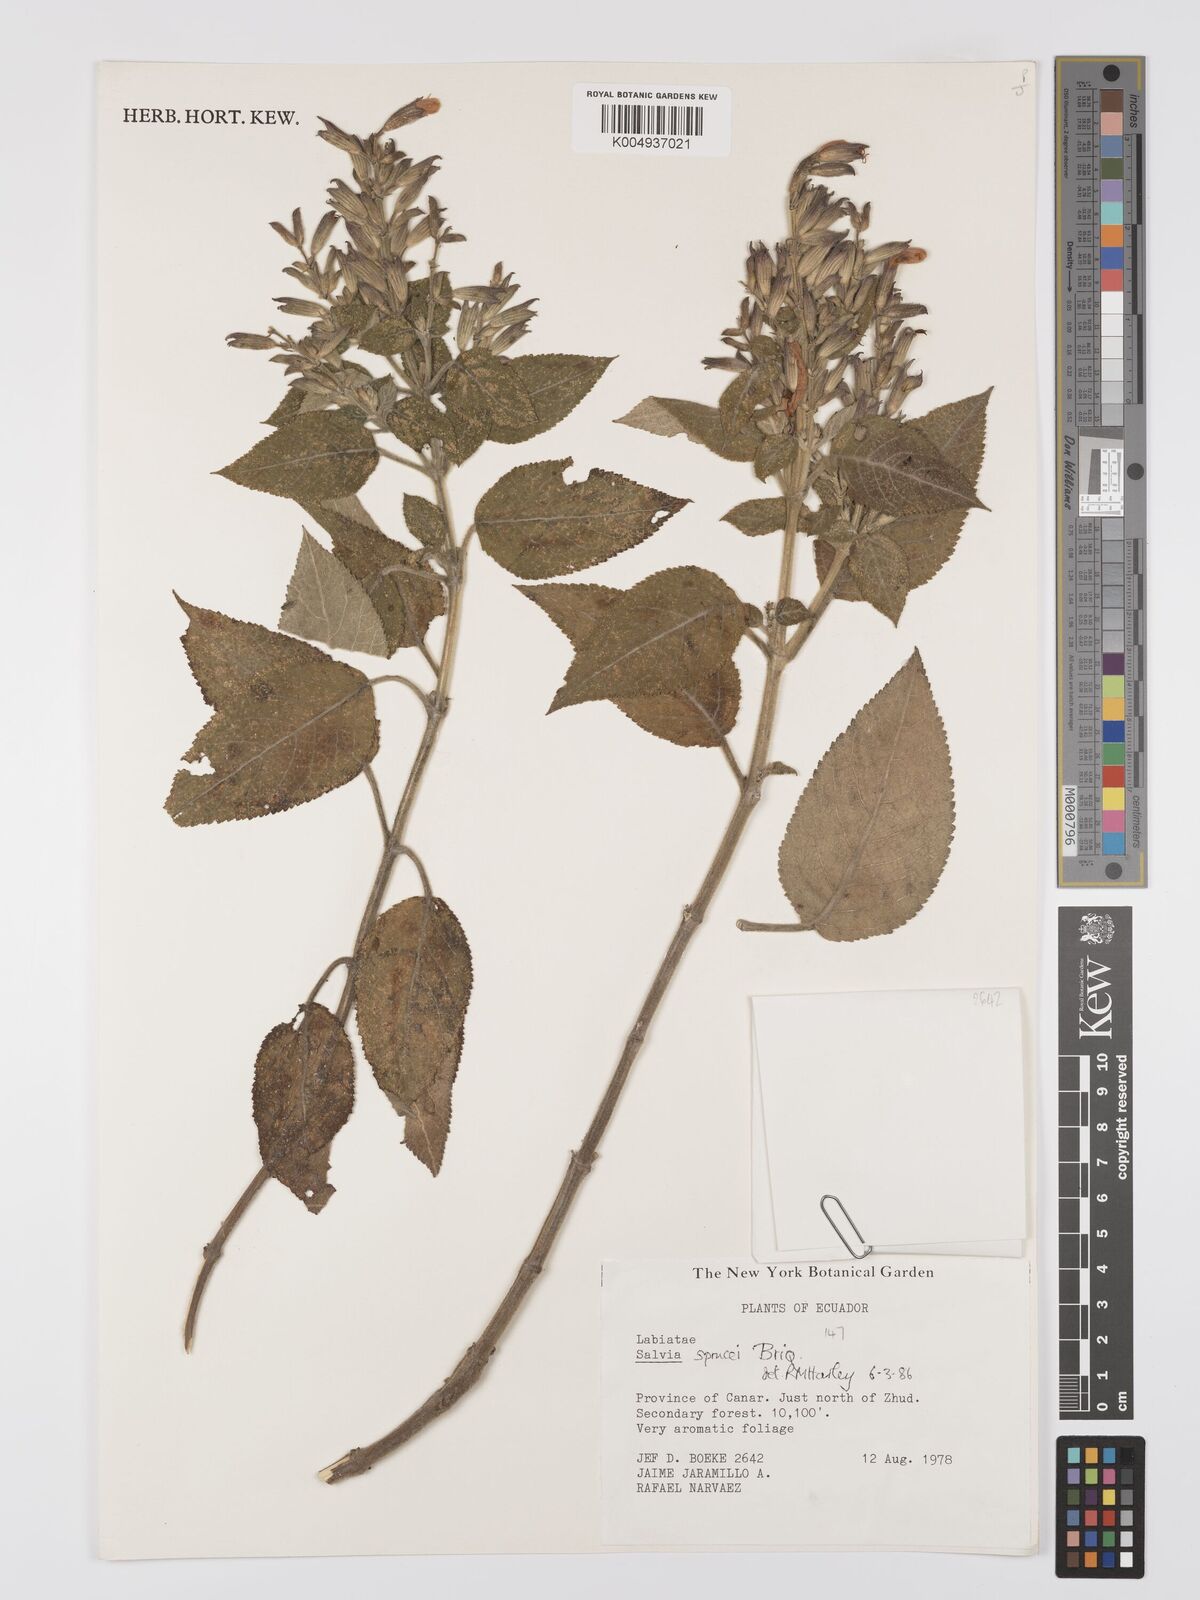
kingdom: Plantae
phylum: Tracheophyta
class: Magnoliopsida
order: Lamiales
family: Lamiaceae
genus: Salvia
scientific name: Salvia sprucei
